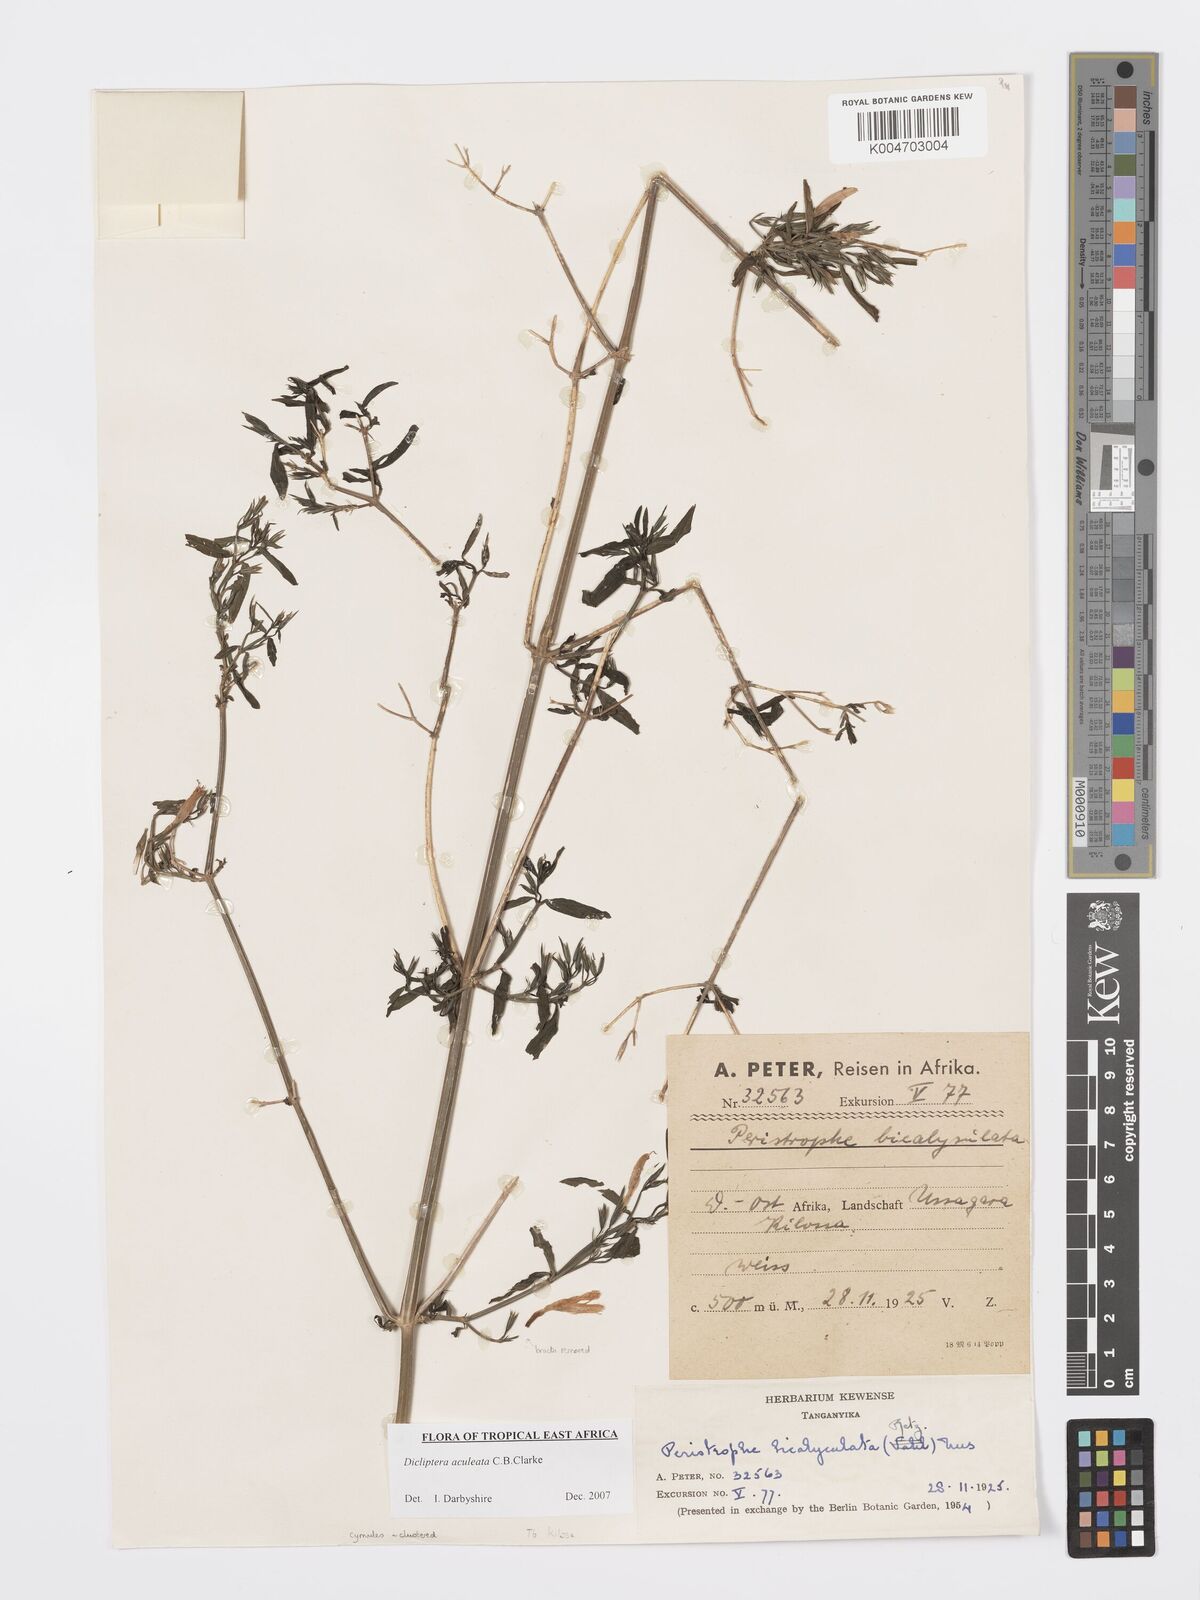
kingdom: Plantae
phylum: Tracheophyta
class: Magnoliopsida
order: Lamiales
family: Acanthaceae
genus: Dicliptera
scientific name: Dicliptera hensii
